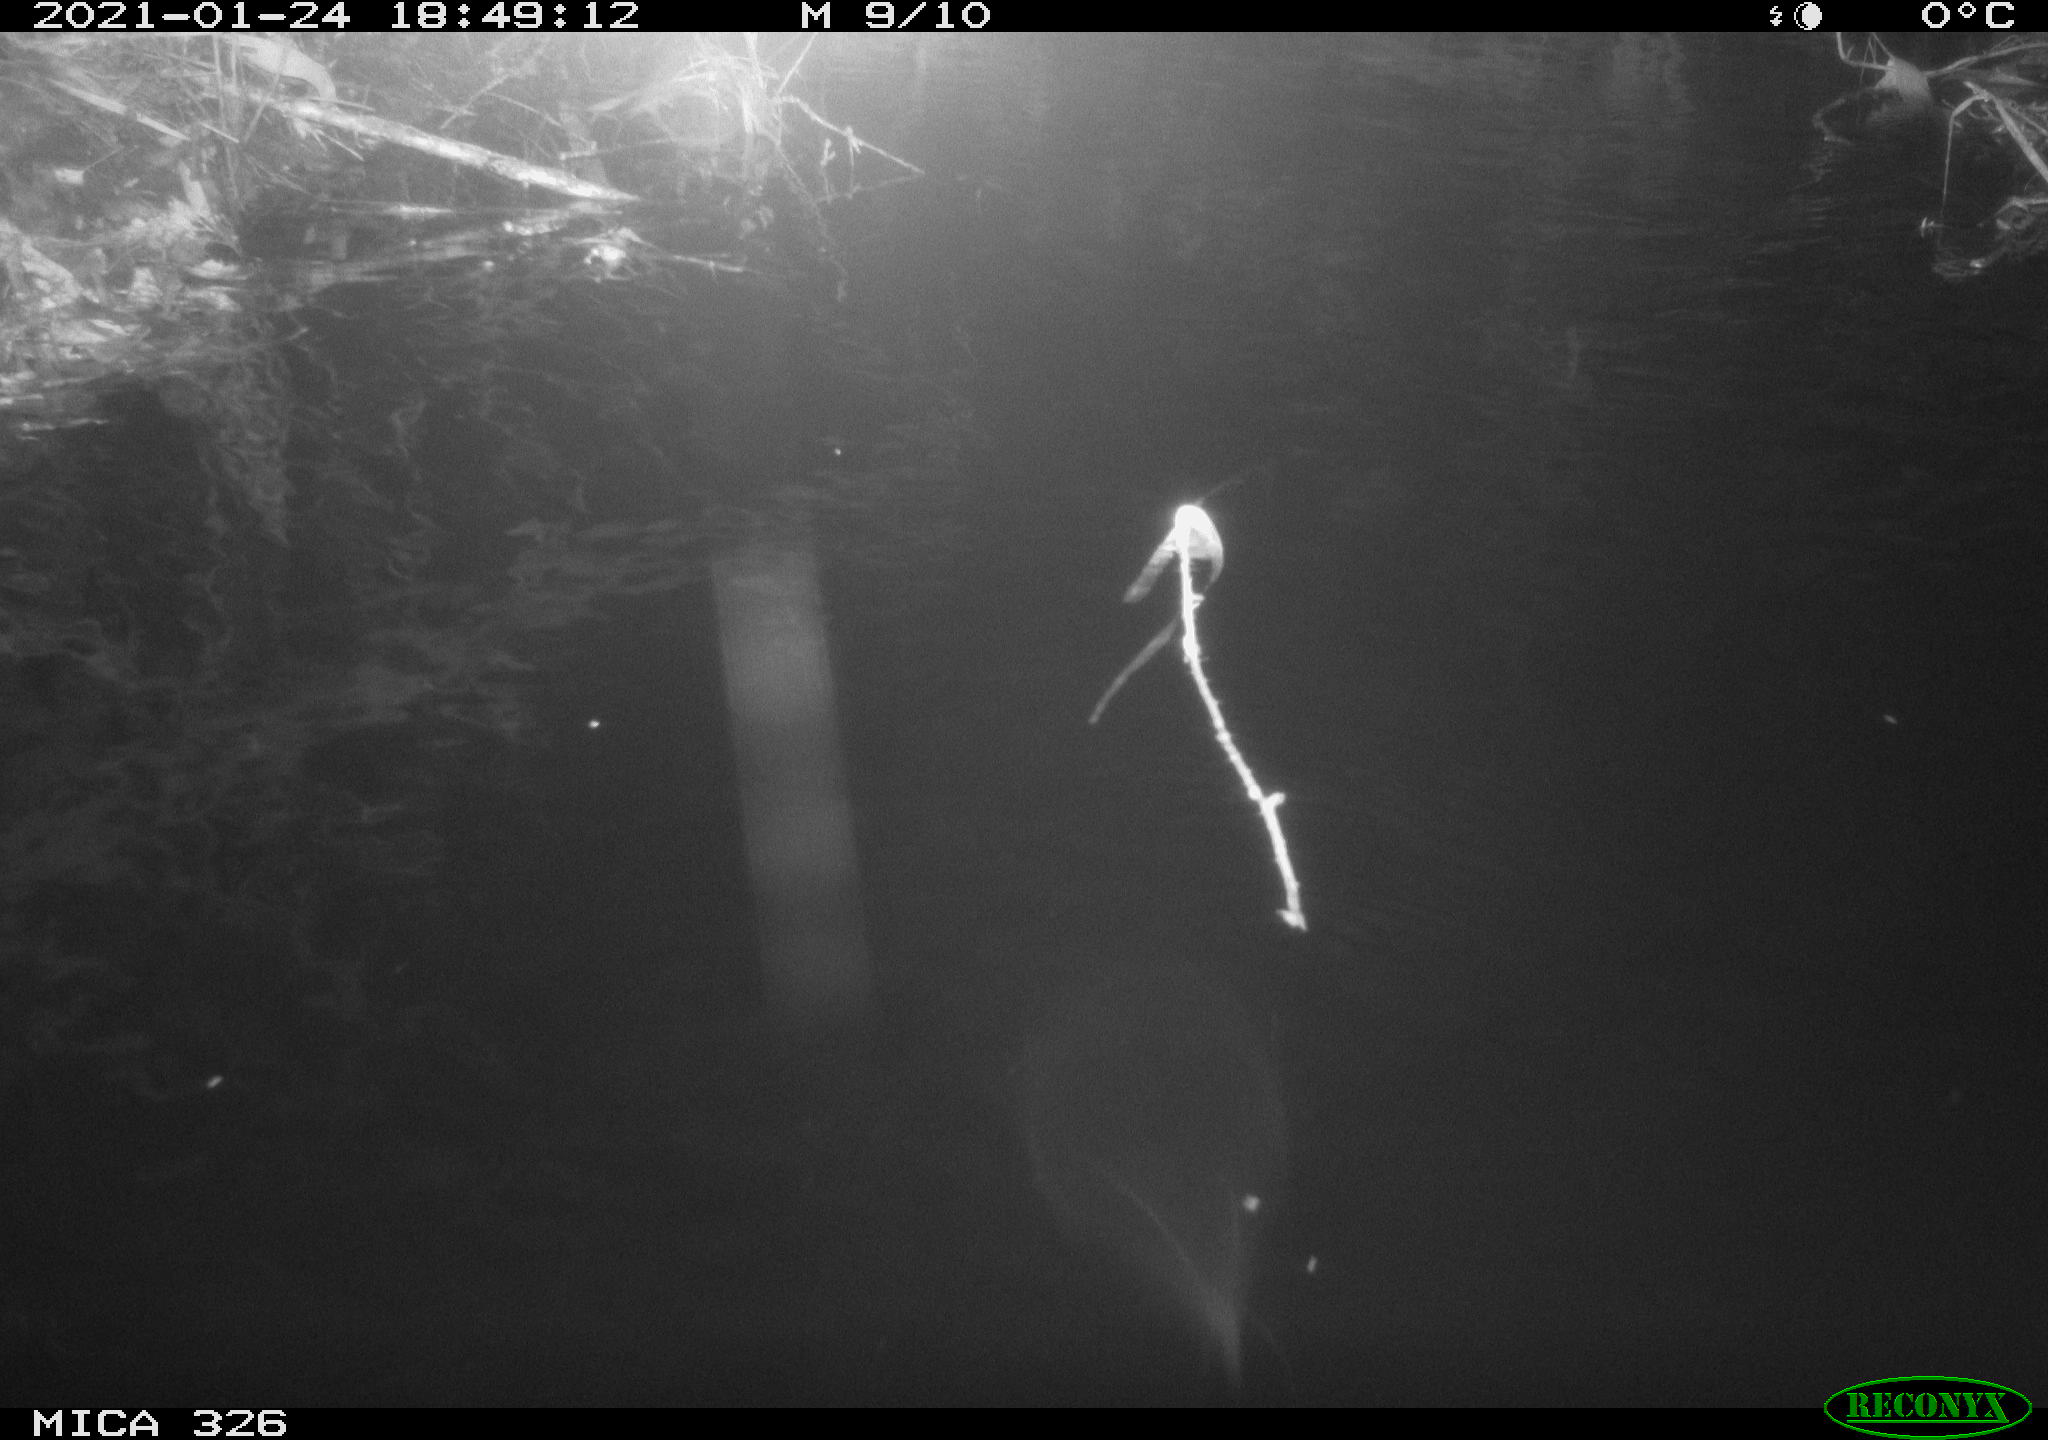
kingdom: Animalia
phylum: Chordata
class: Mammalia
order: Rodentia
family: Cricetidae
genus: Ondatra
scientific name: Ondatra zibethicus
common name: Muskrat
